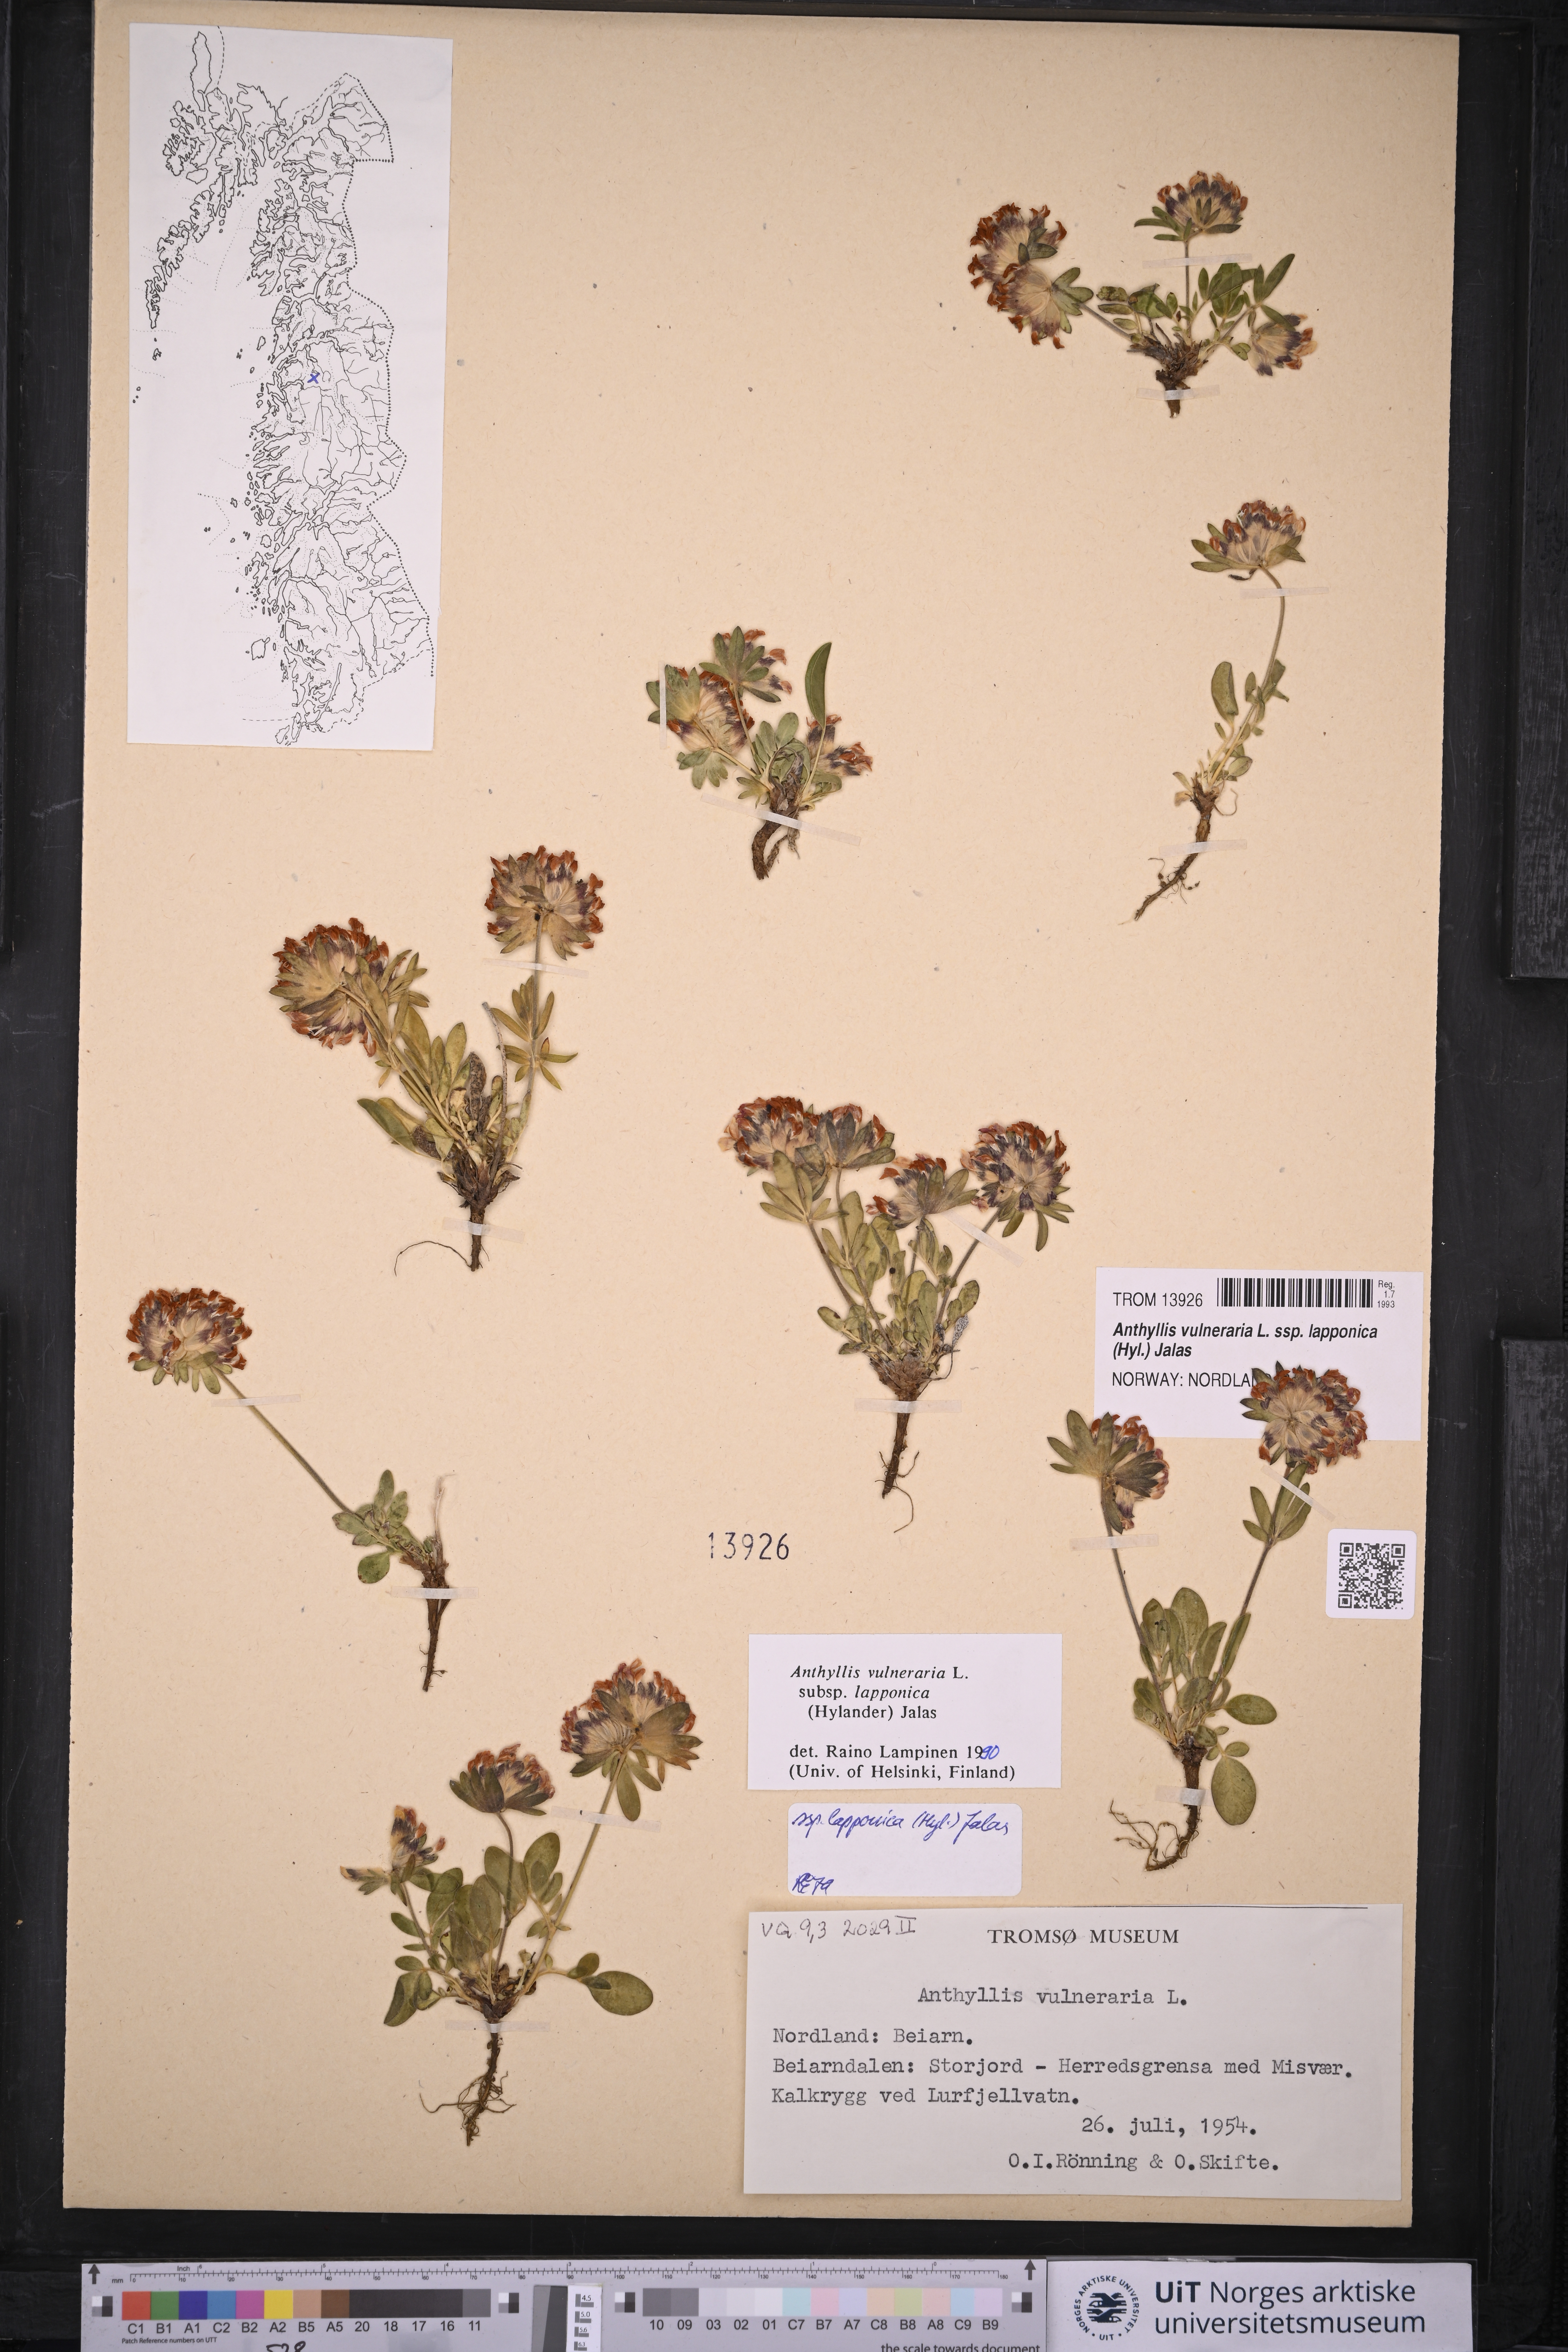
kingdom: Plantae
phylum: Tracheophyta
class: Magnoliopsida
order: Fabales
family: Fabaceae
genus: Anthyllis
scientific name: Anthyllis vulneraria
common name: Kidney vetch
